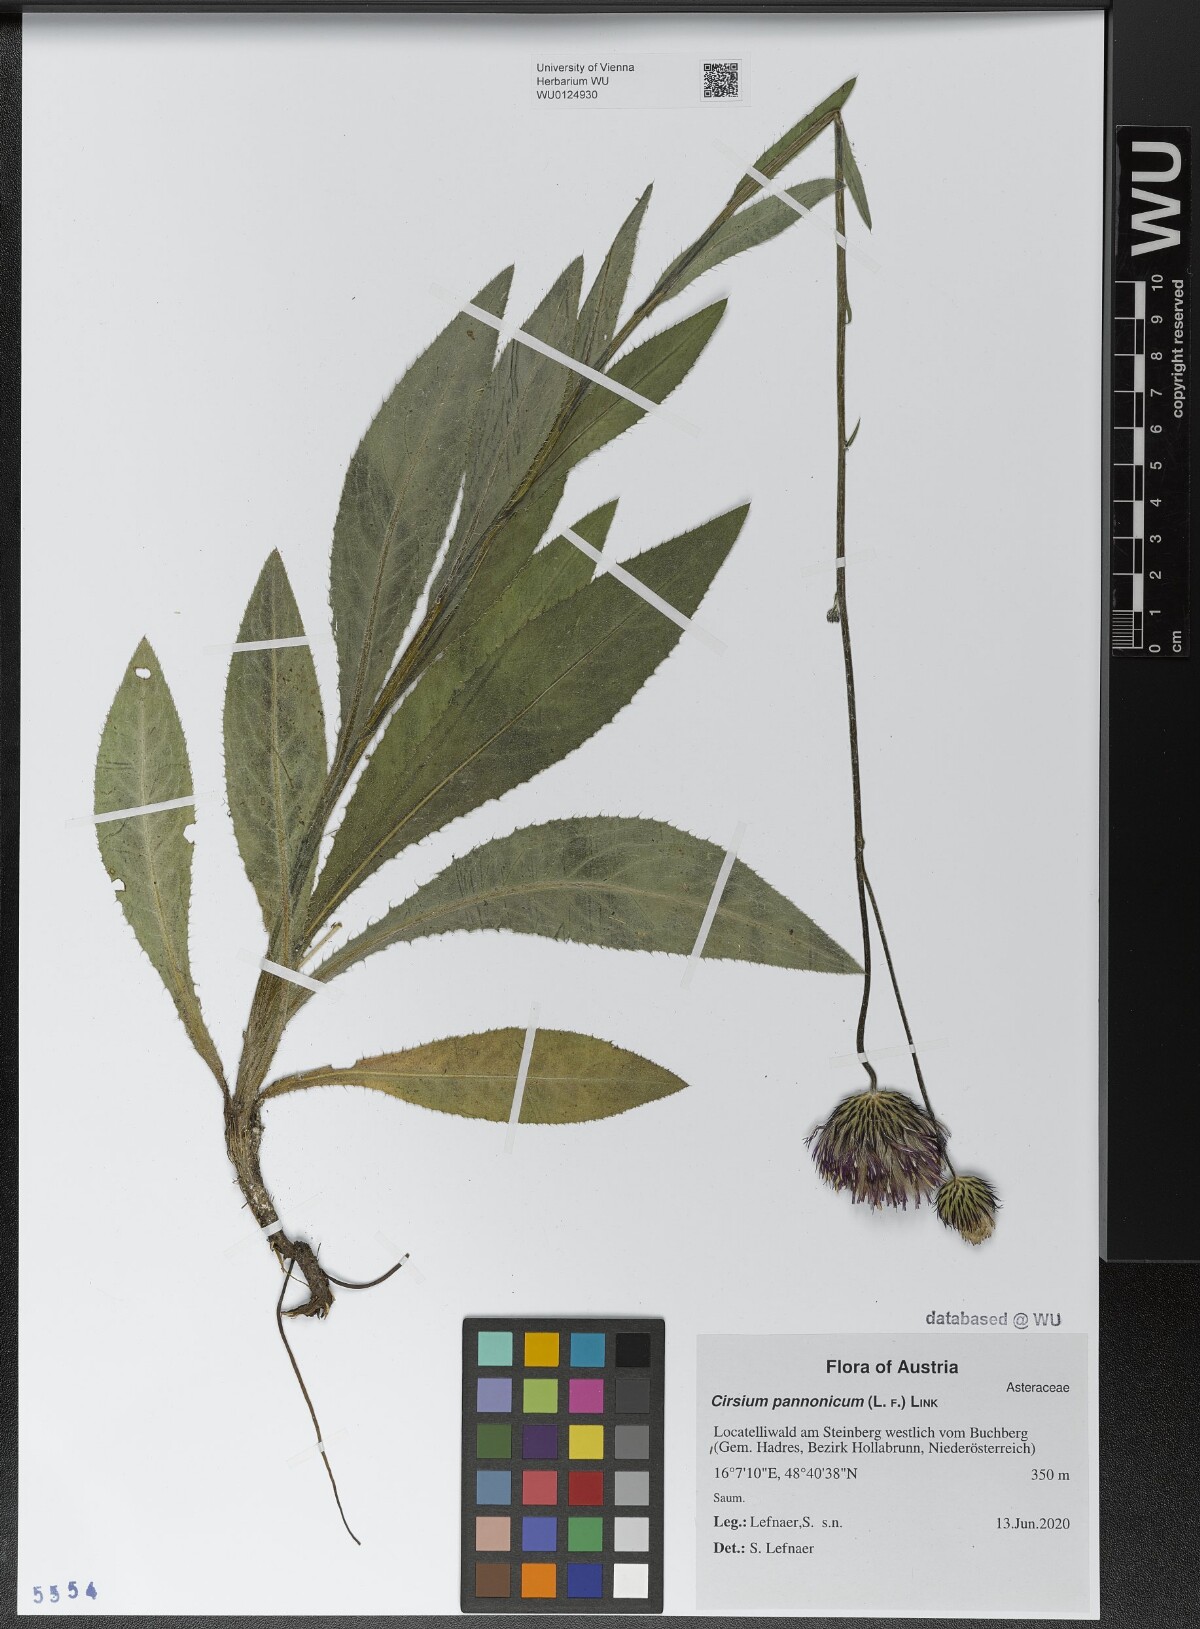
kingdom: Plantae
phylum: Tracheophyta
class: Magnoliopsida
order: Asterales
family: Asteraceae
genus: Cirsium
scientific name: Cirsium pannonicum
